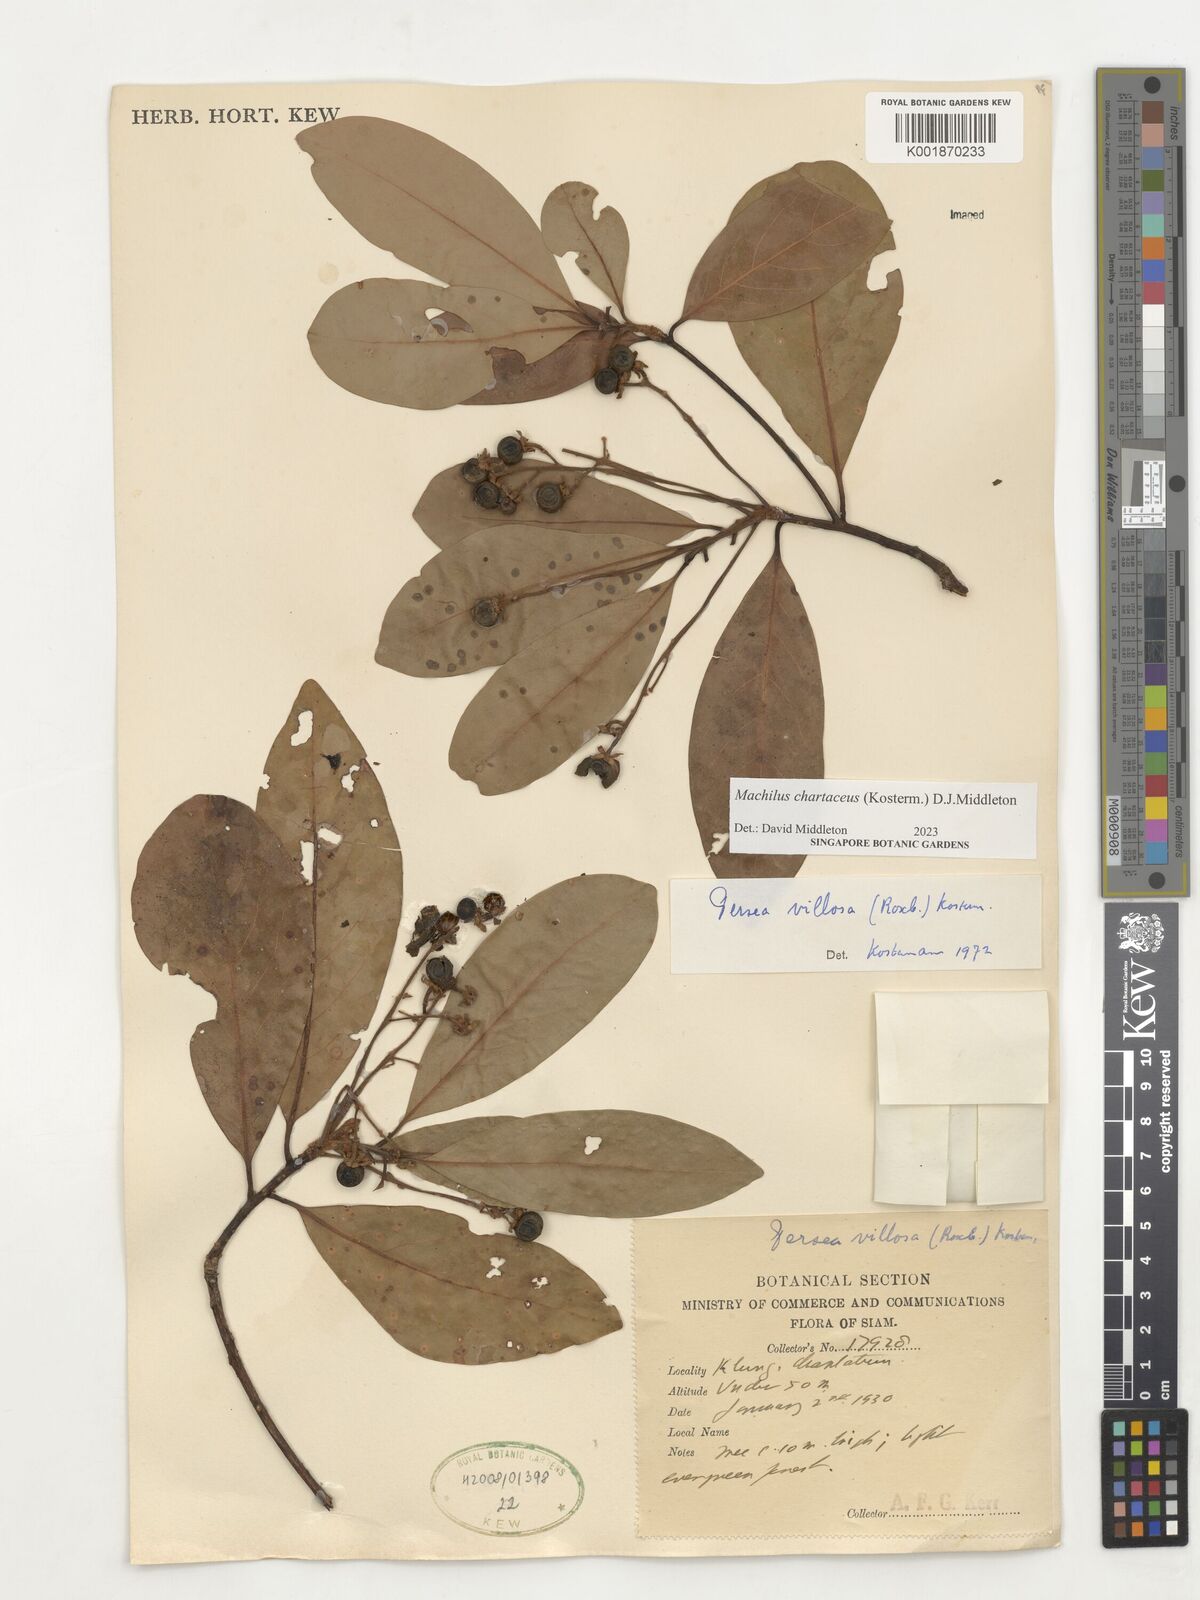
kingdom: Plantae
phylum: Tracheophyta
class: Magnoliopsida
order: Laurales
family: Lauraceae
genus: Machilus
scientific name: Machilus
